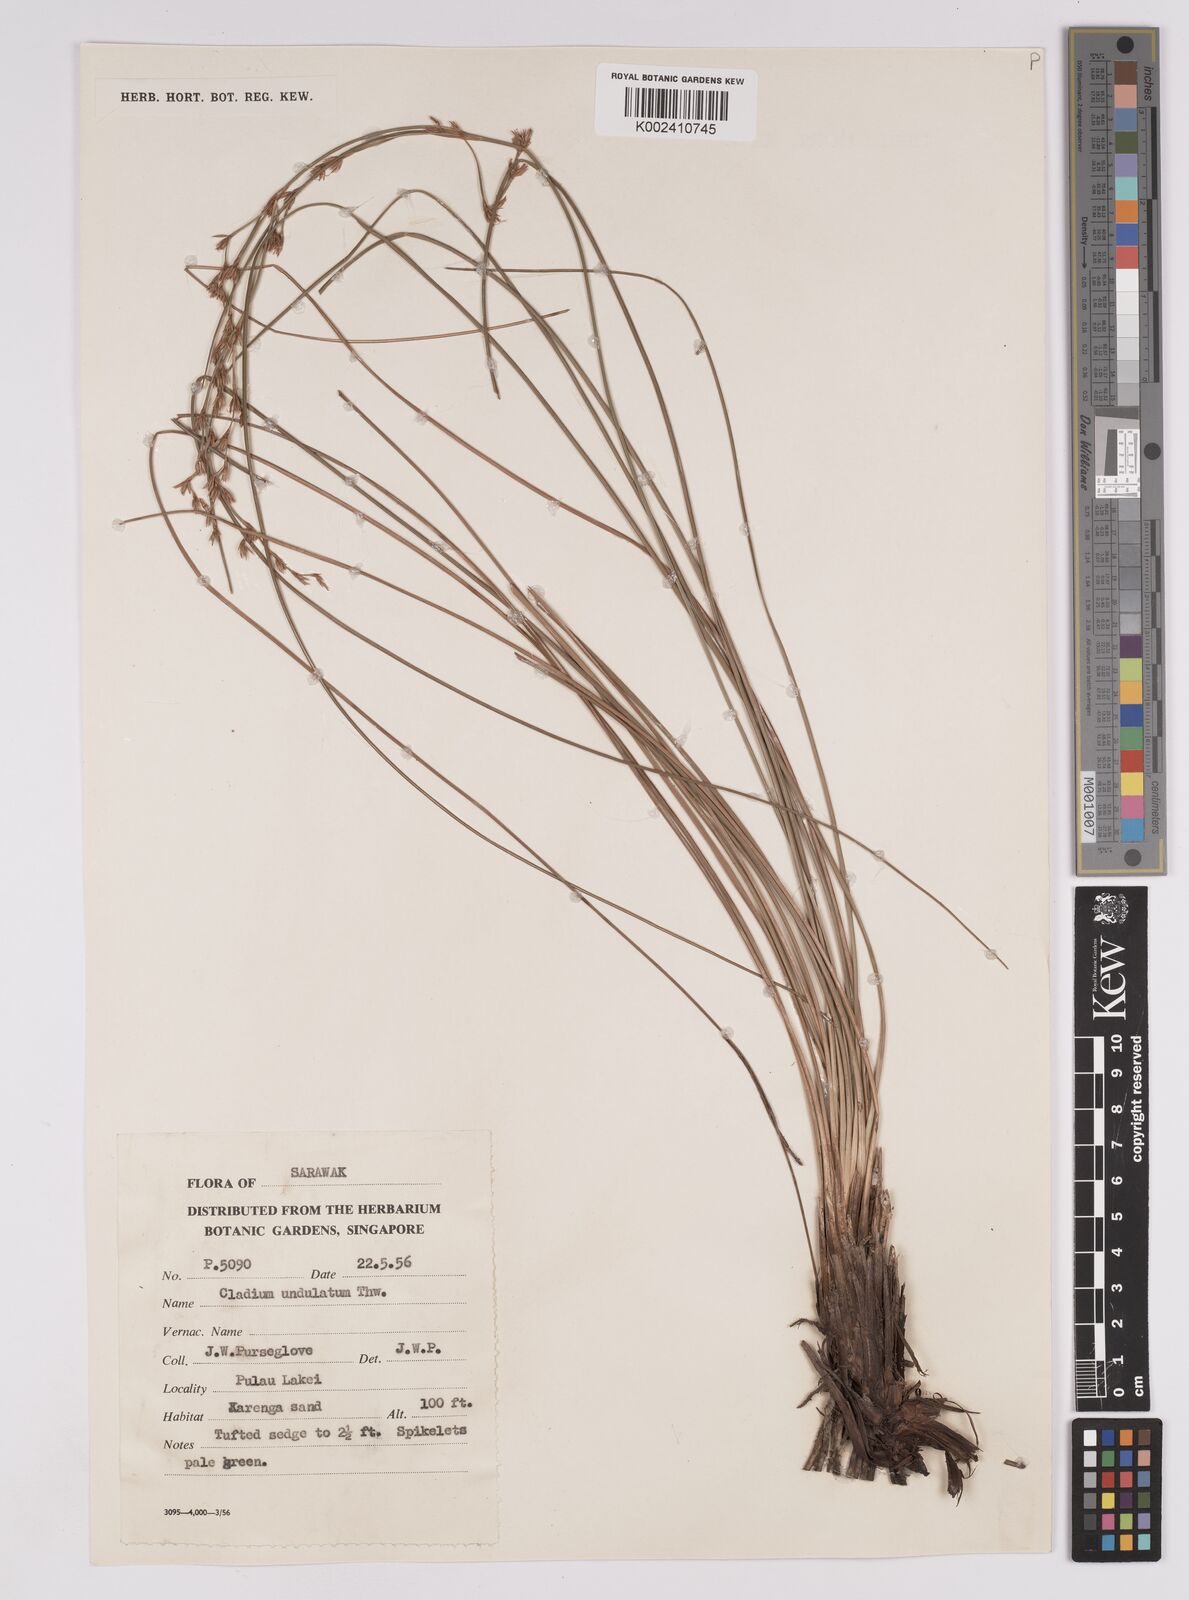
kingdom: Plantae
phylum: Tracheophyta
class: Liliopsida
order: Poales
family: Cyperaceae
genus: Anthelepis
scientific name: Anthelepis undulata
